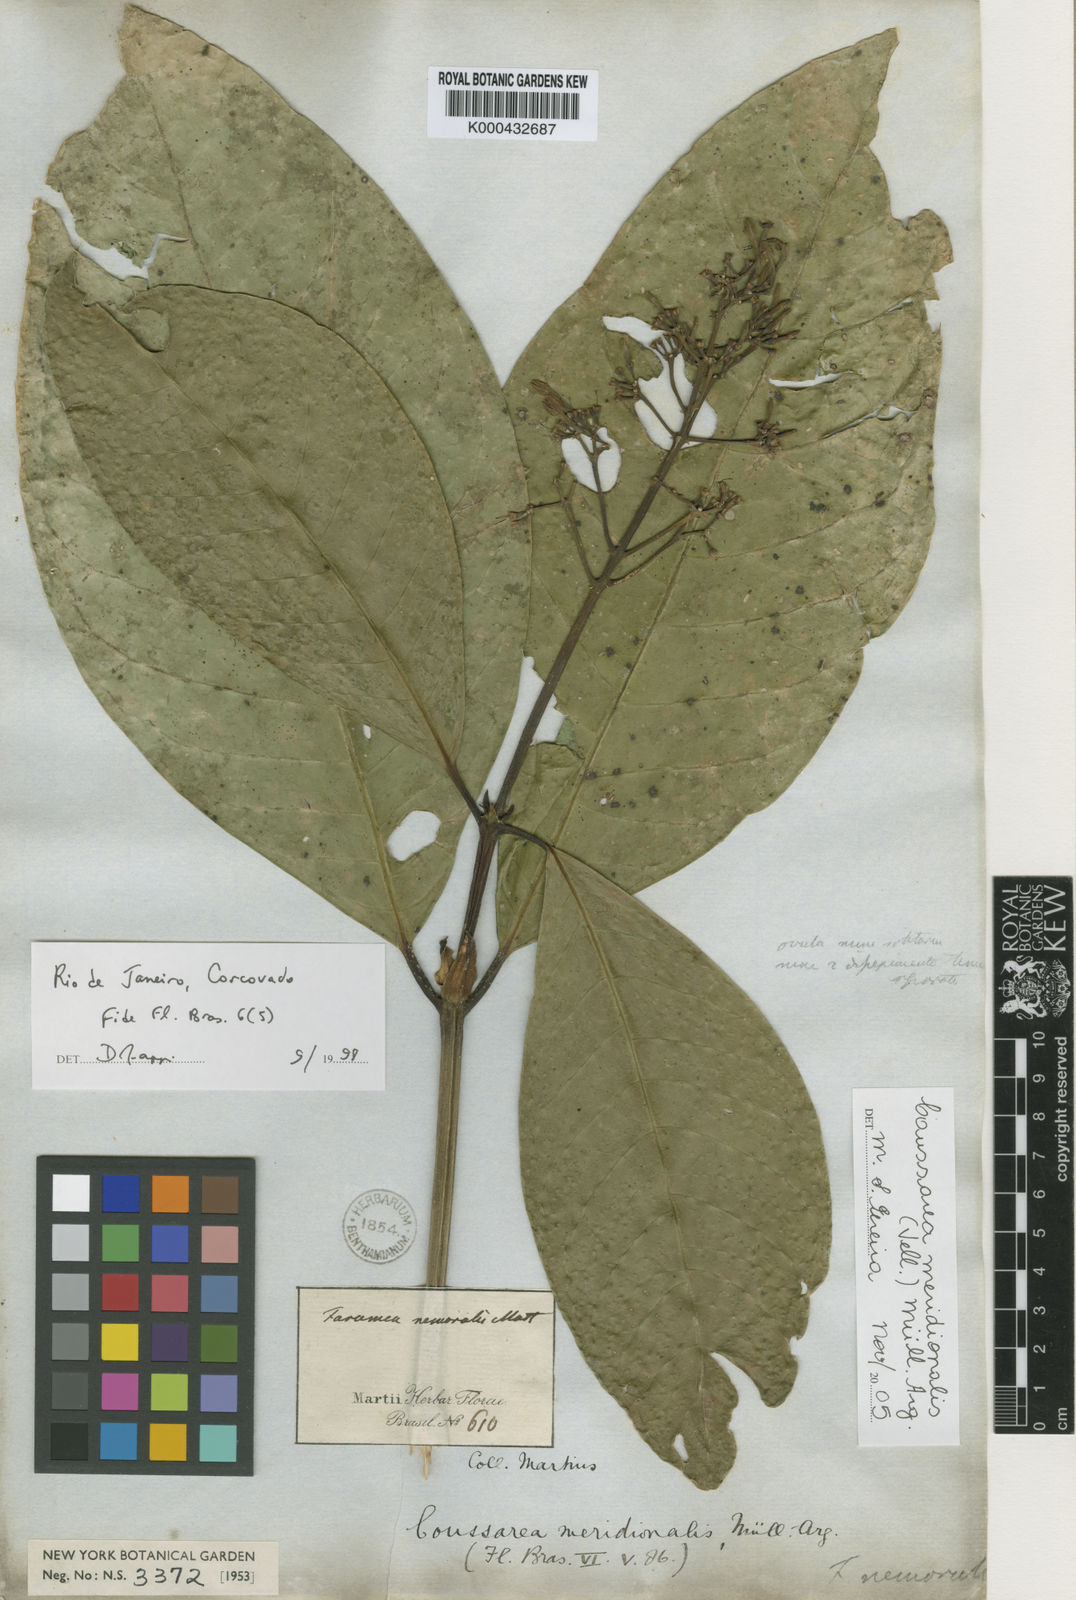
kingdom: Plantae
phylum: Tracheophyta
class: Magnoliopsida
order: Gentianales
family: Rubiaceae
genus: Coussarea
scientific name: Coussarea
